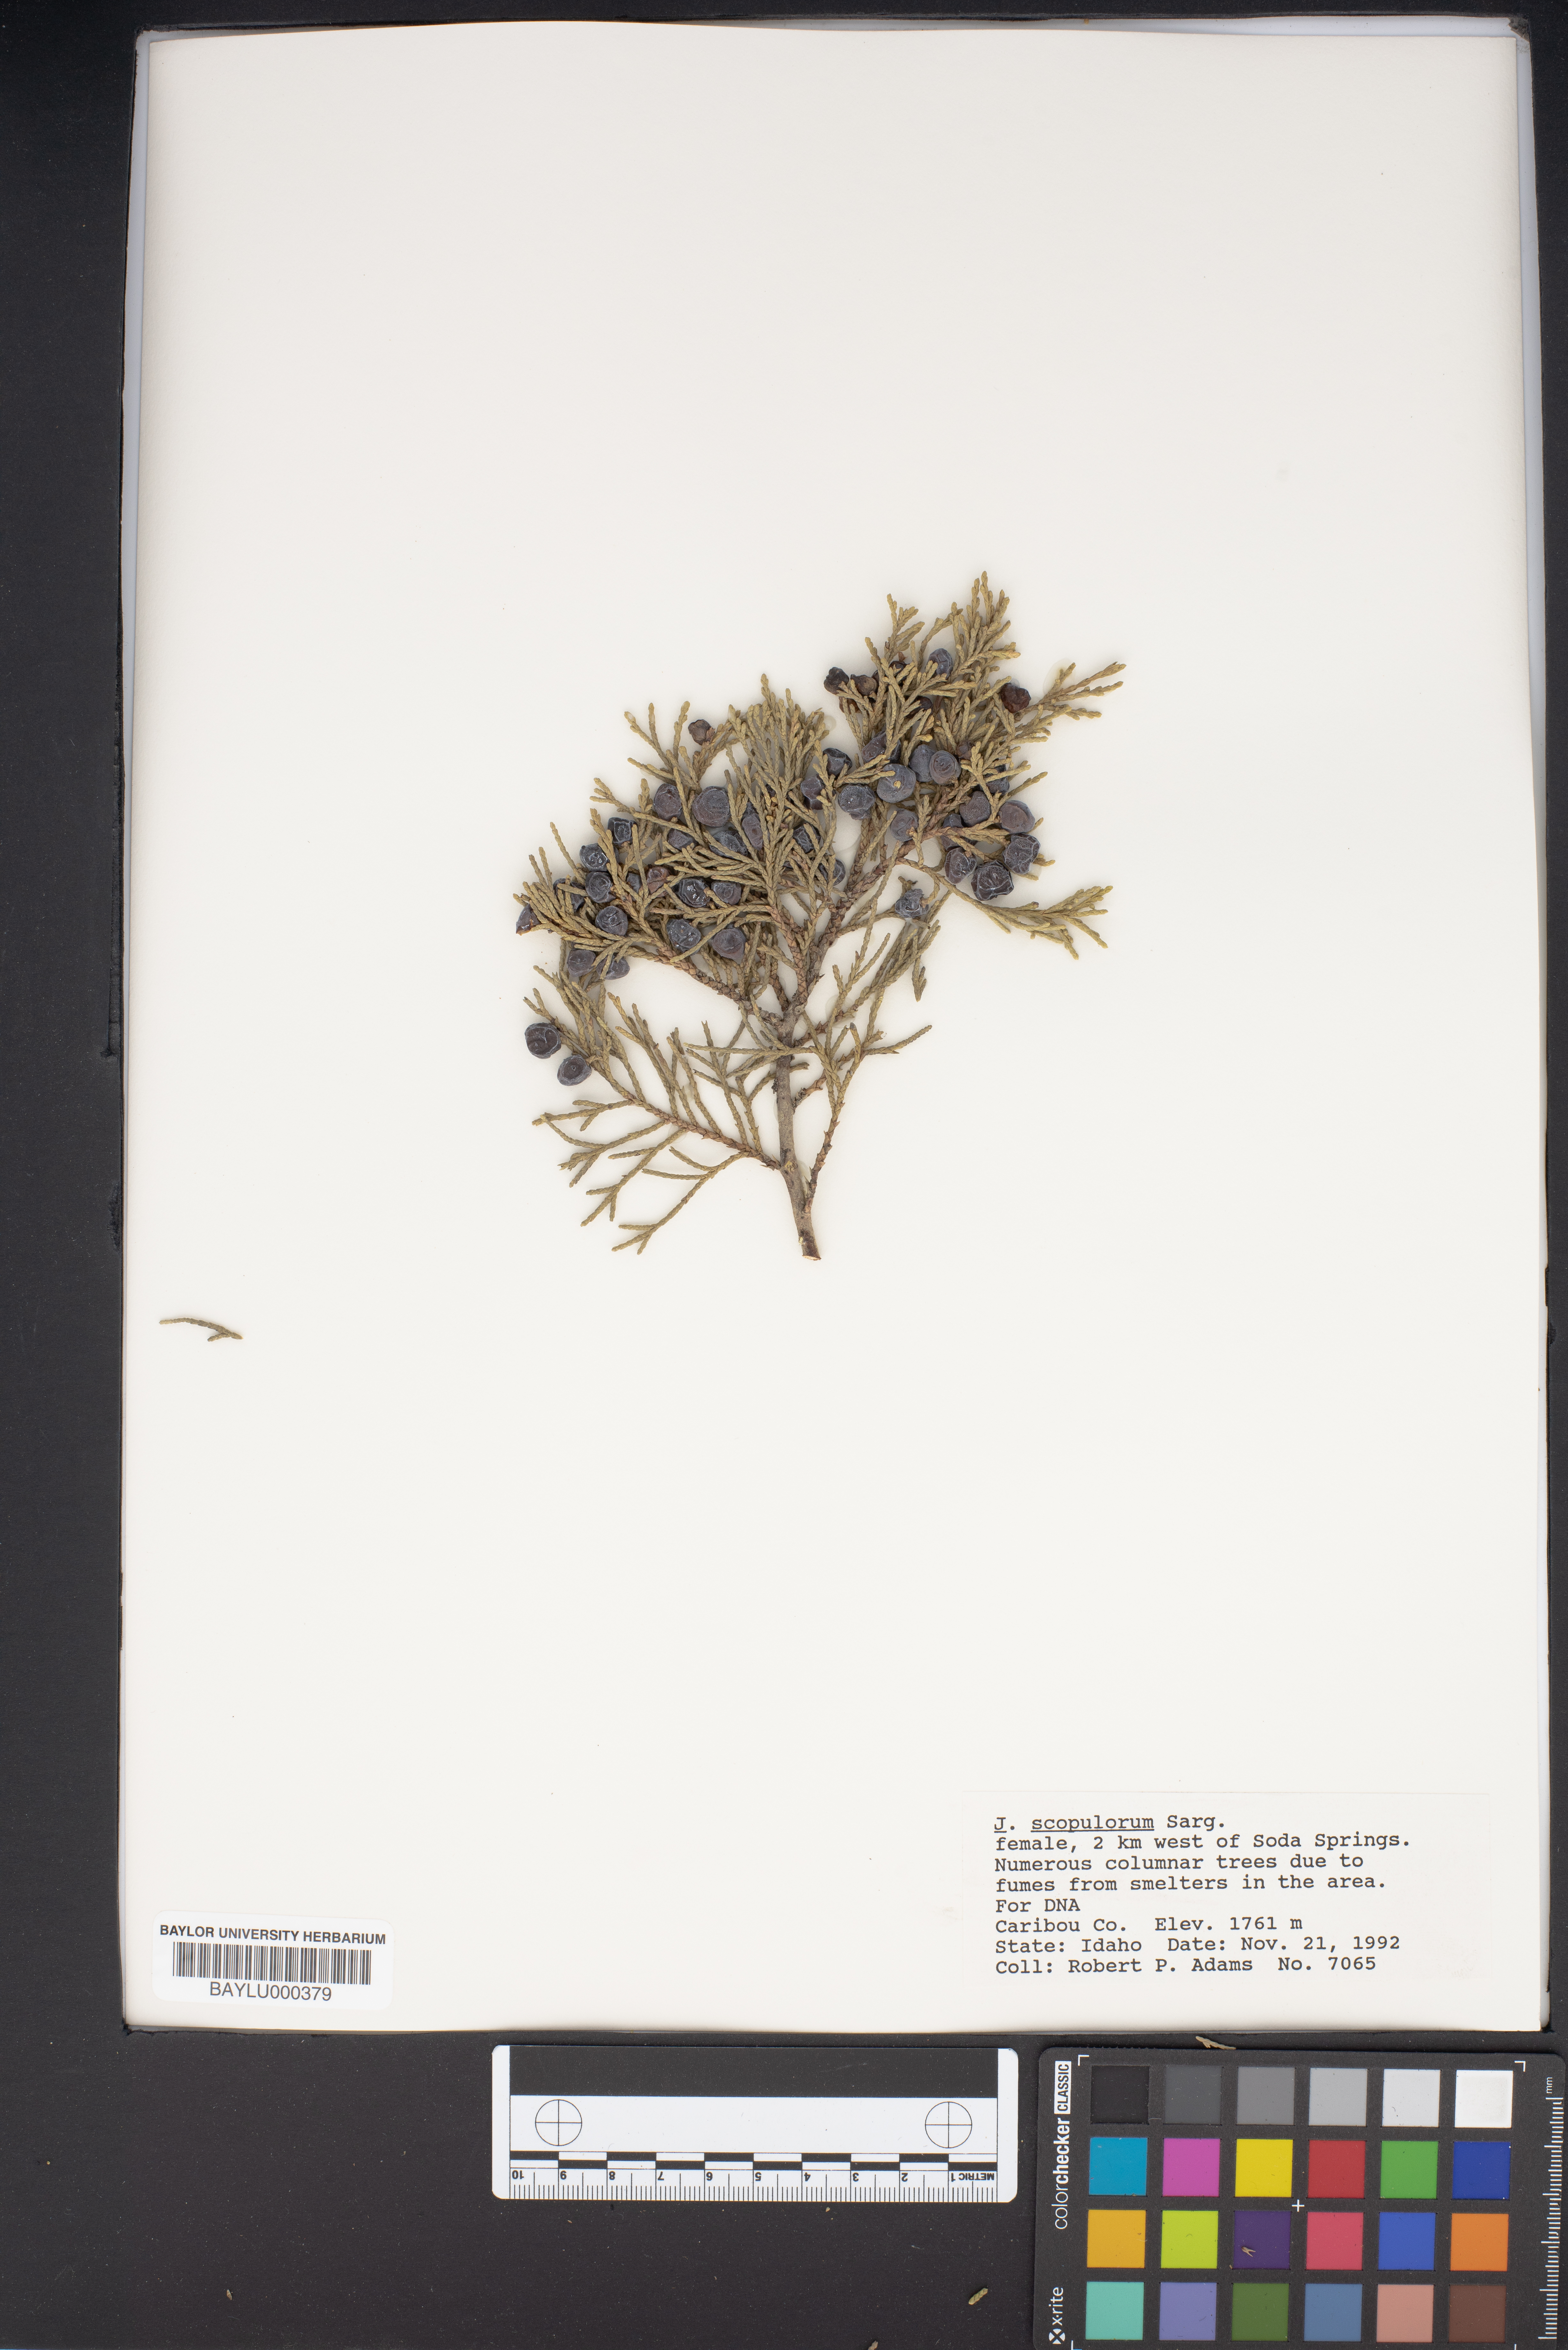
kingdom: Plantae
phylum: Tracheophyta
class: Pinopsida
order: Pinales
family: Cupressaceae
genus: Juniperus
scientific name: Juniperus scopulorum
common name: Rocky mountain juniper
